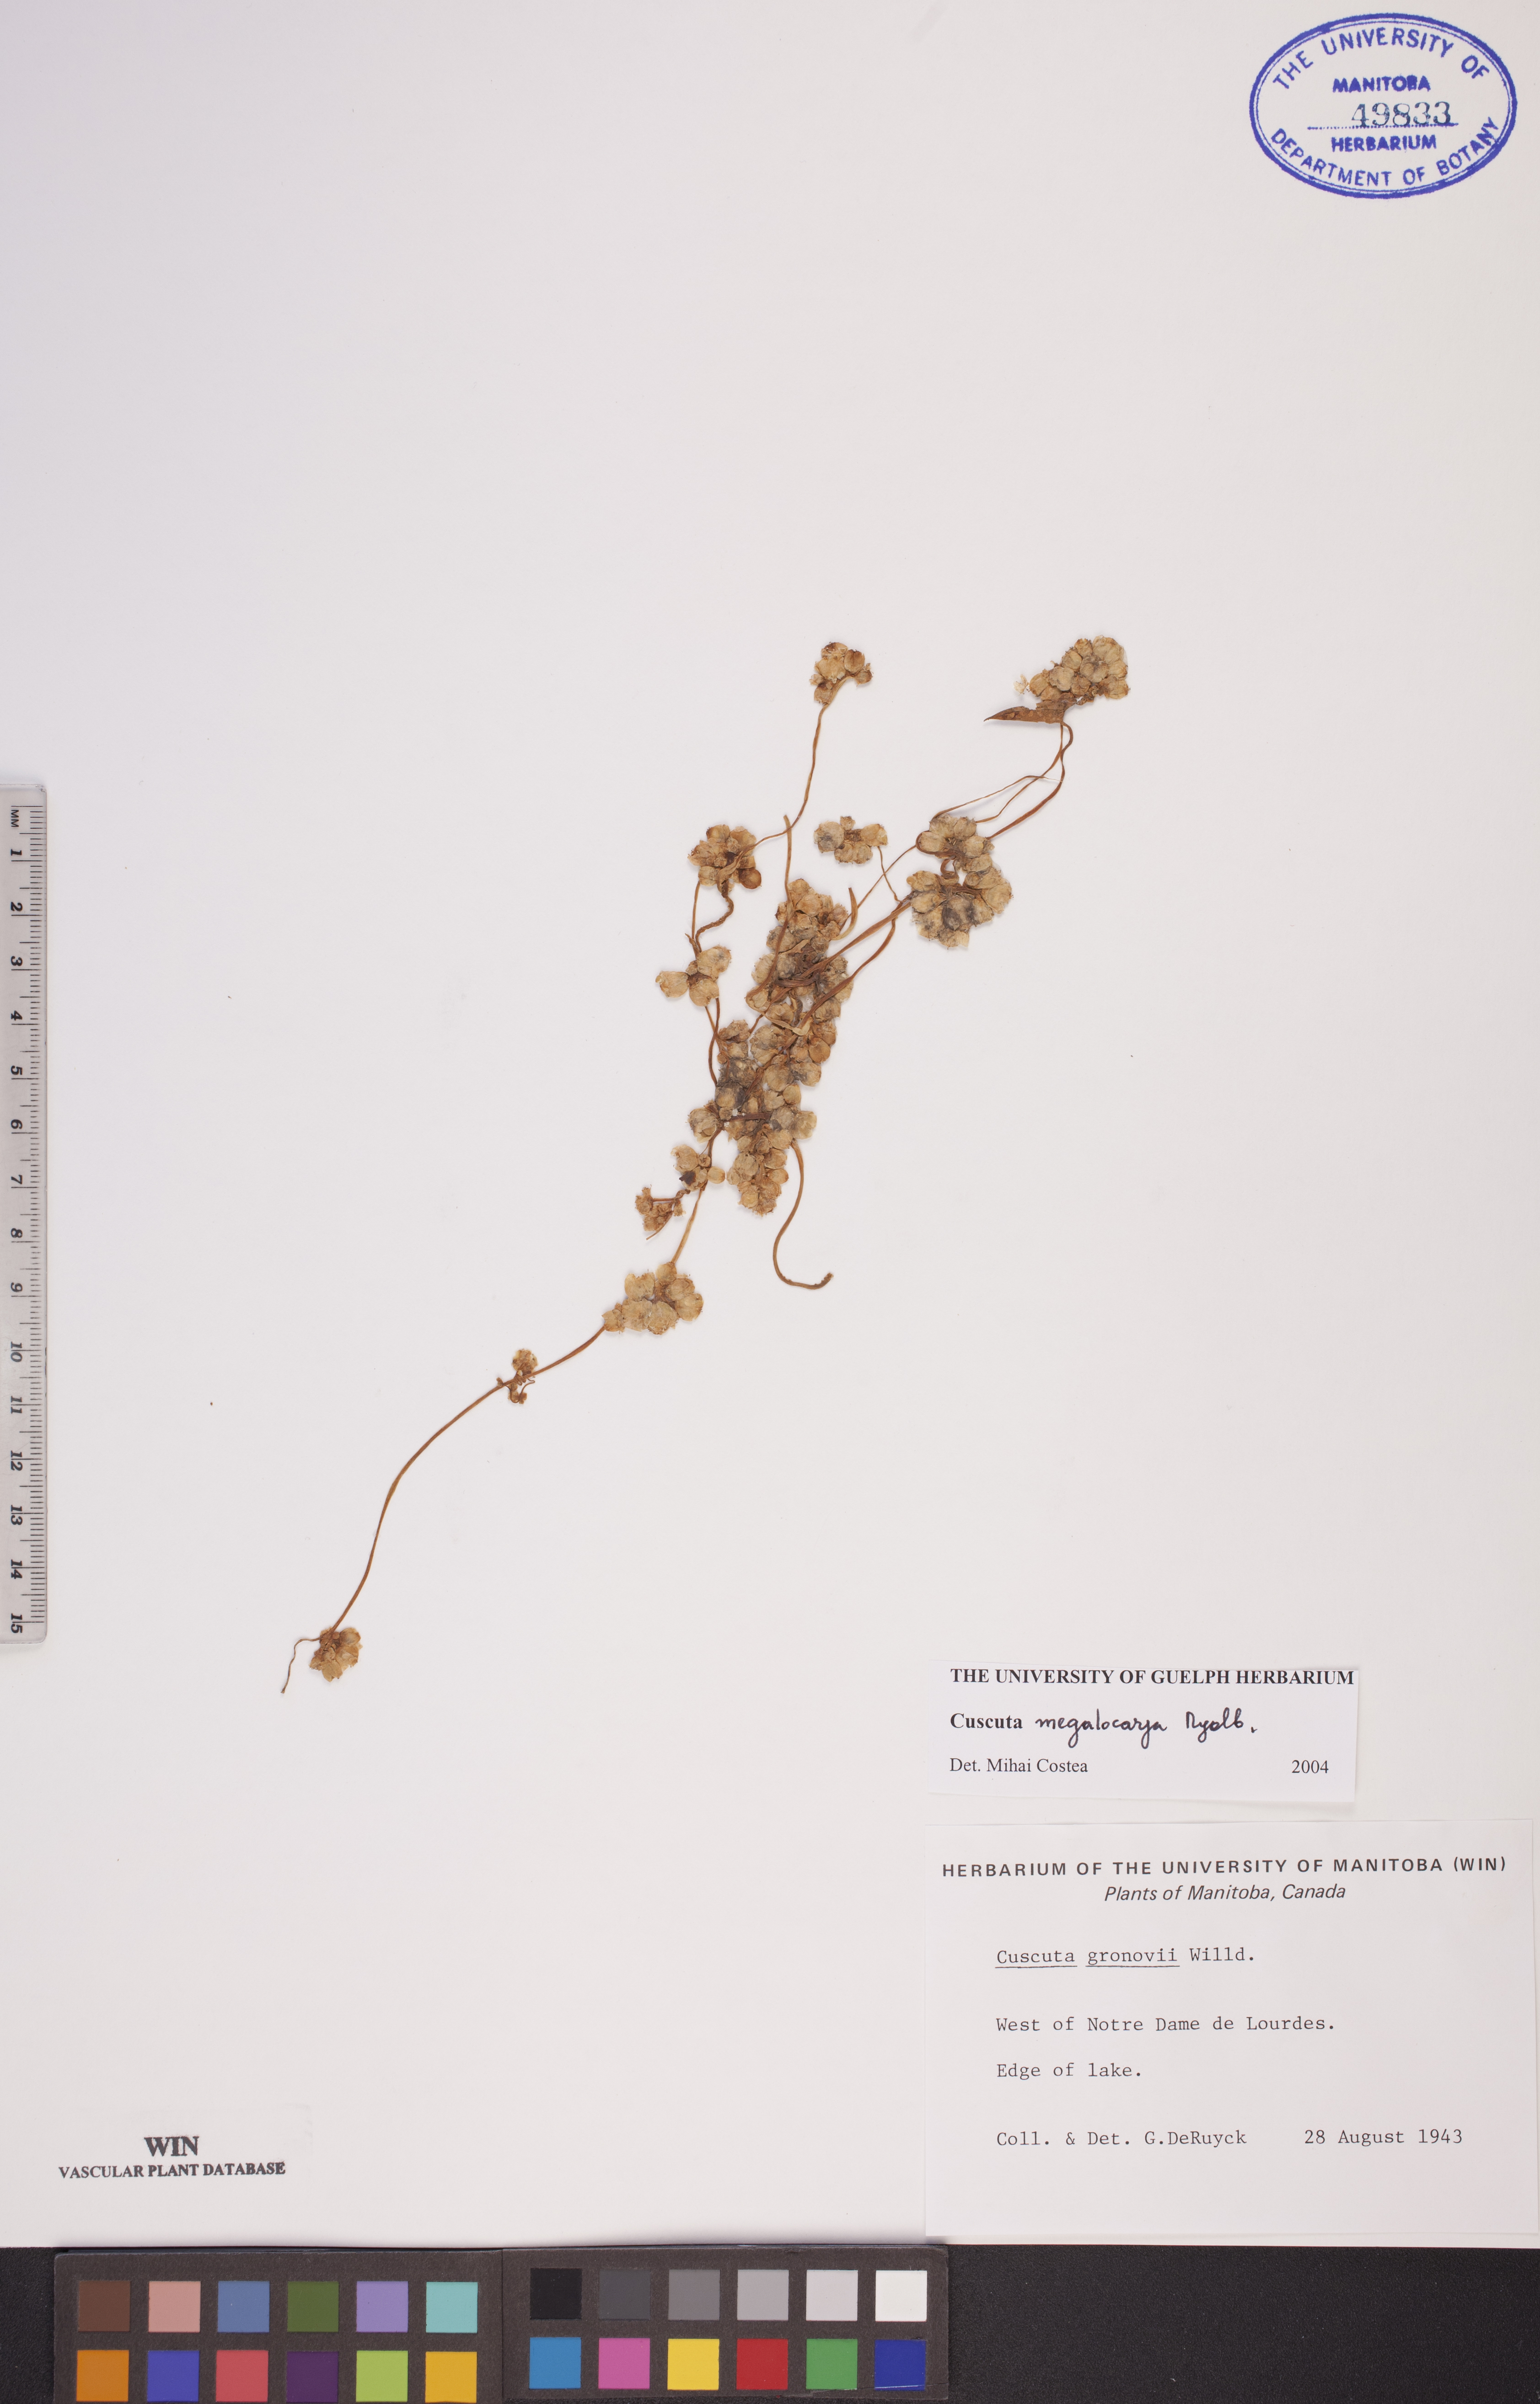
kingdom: Plantae
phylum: Tracheophyta
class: Magnoliopsida
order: Solanales
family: Convolvulaceae
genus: Cuscuta
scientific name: Cuscuta umbrosa
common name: Bigfruit dodder
